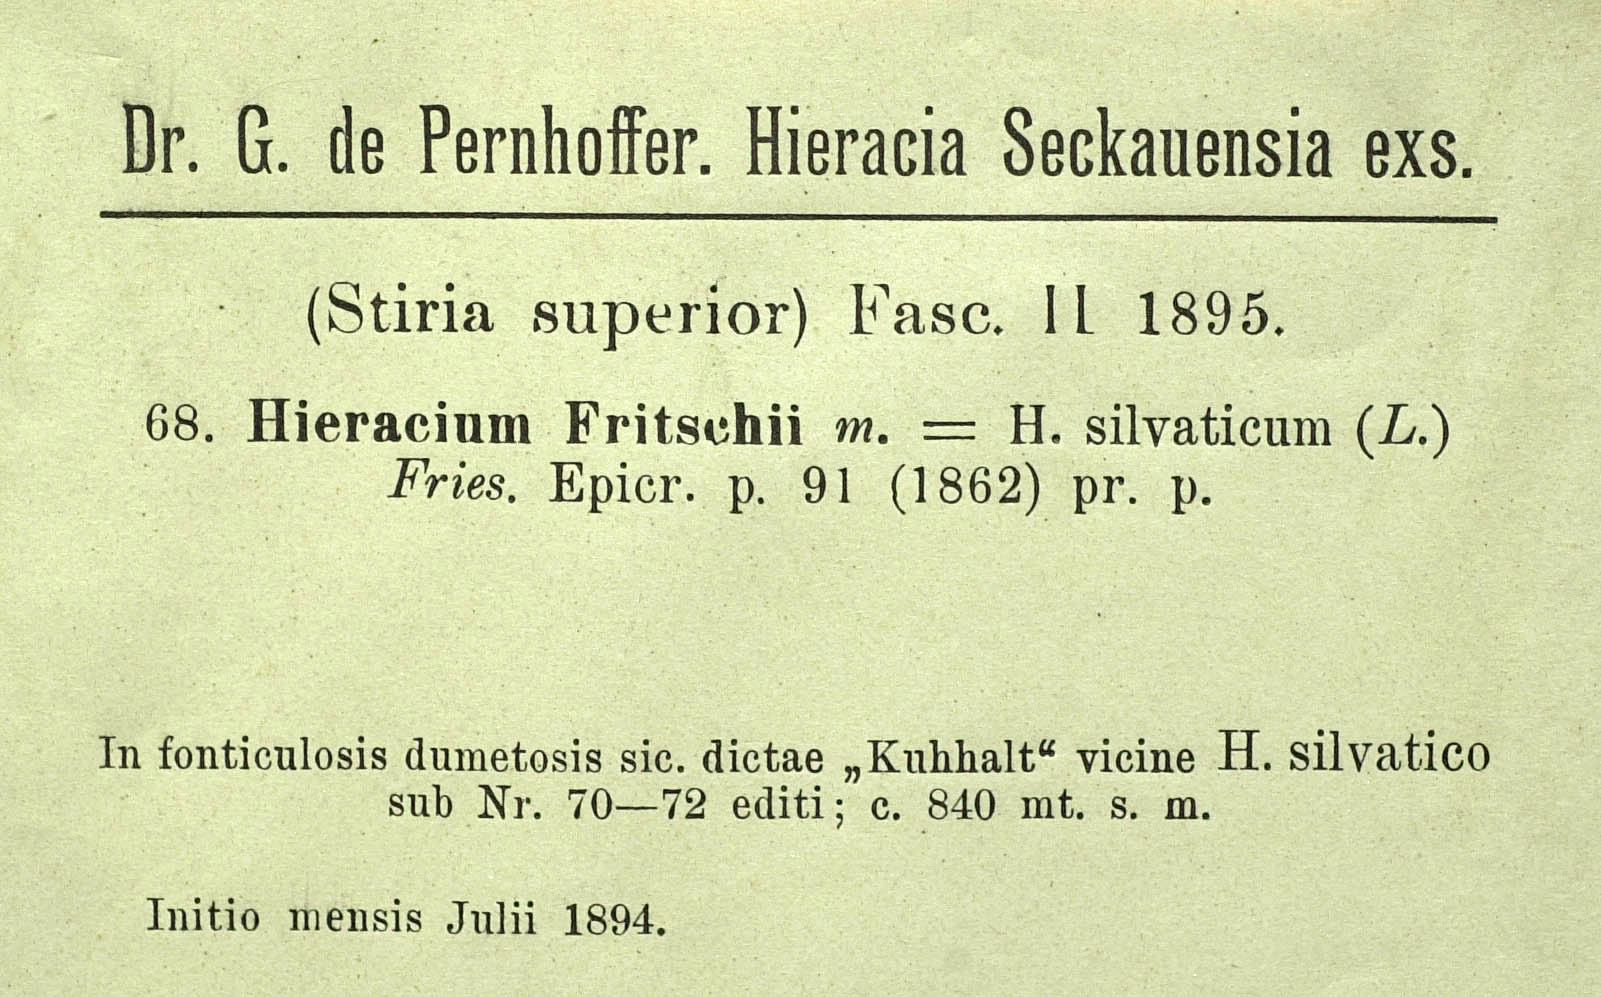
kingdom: Plantae
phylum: Tracheophyta
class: Magnoliopsida
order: Asterales
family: Asteraceae
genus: Hieracium
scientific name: Hieracium murorum
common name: Wall hawkweed
